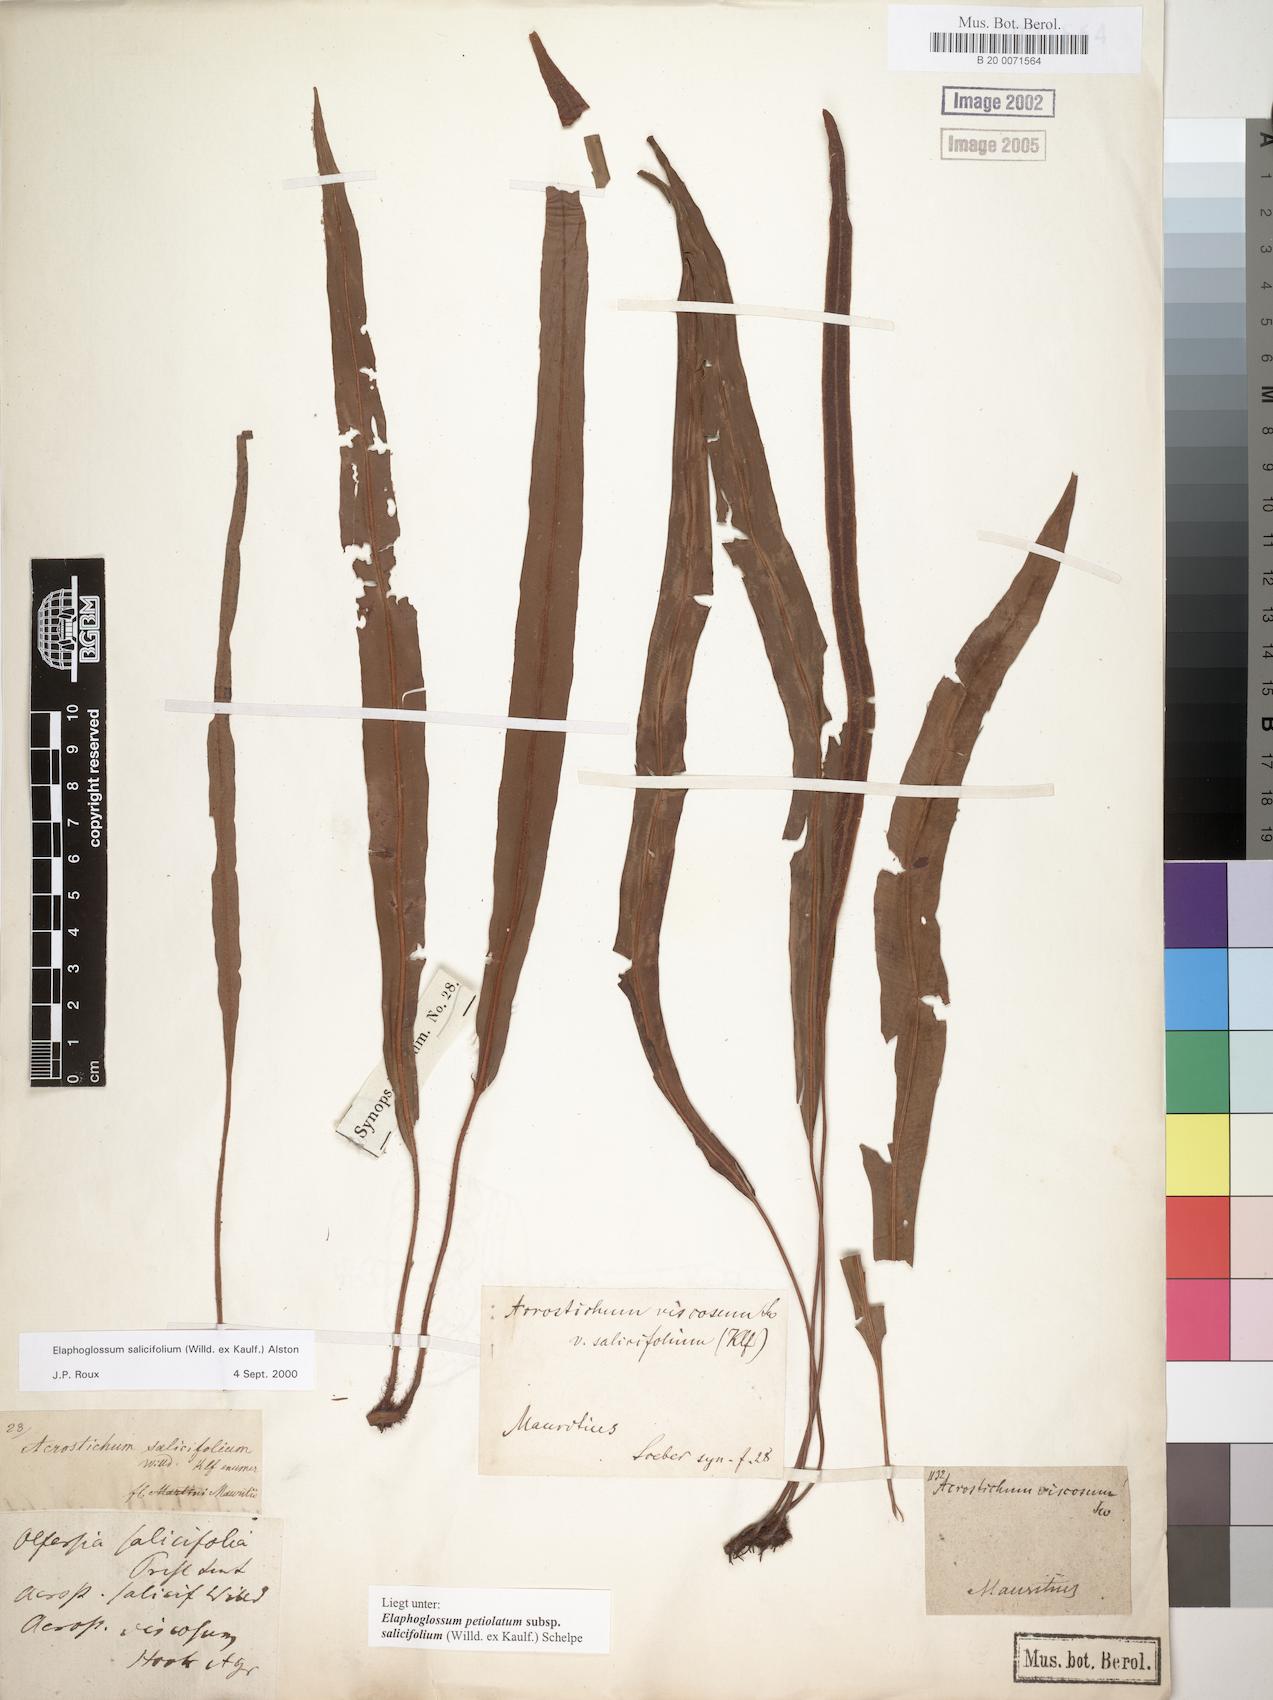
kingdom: Plantae
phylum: Tracheophyta
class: Polypodiopsida
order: Polypodiales
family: Dryopteridaceae
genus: Elaphoglossum
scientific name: Elaphoglossum lancifolium
